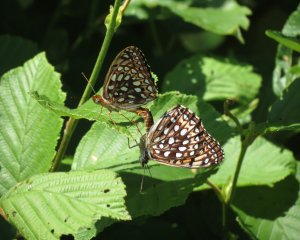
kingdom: Animalia
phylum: Arthropoda
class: Insecta
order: Lepidoptera
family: Nymphalidae
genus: Speyeria
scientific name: Speyeria atlantis
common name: Atlantis Fritillary
